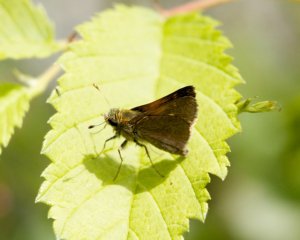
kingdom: Animalia
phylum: Arthropoda
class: Insecta
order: Lepidoptera
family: Hesperiidae
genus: Polites
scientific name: Polites themistocles
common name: Tawny-edged Skipper
